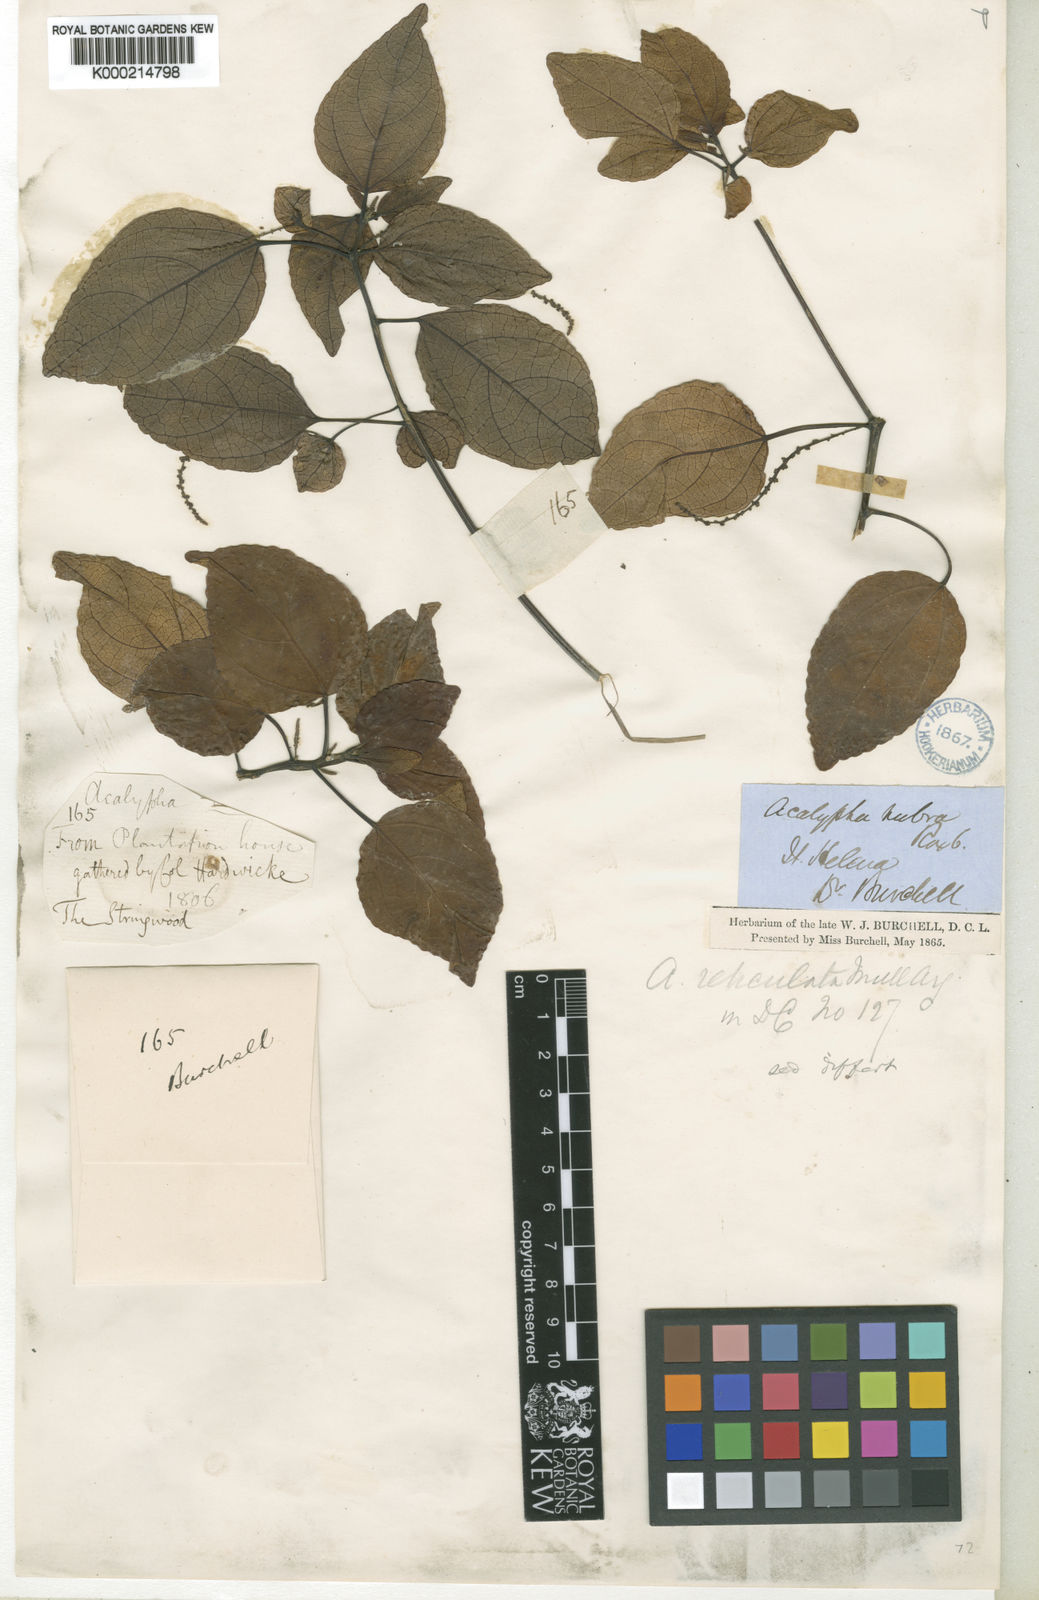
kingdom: Plantae
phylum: Tracheophyta
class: Magnoliopsida
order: Malpighiales
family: Euphorbiaceae
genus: Acalypha
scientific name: Acalypha filiformis
